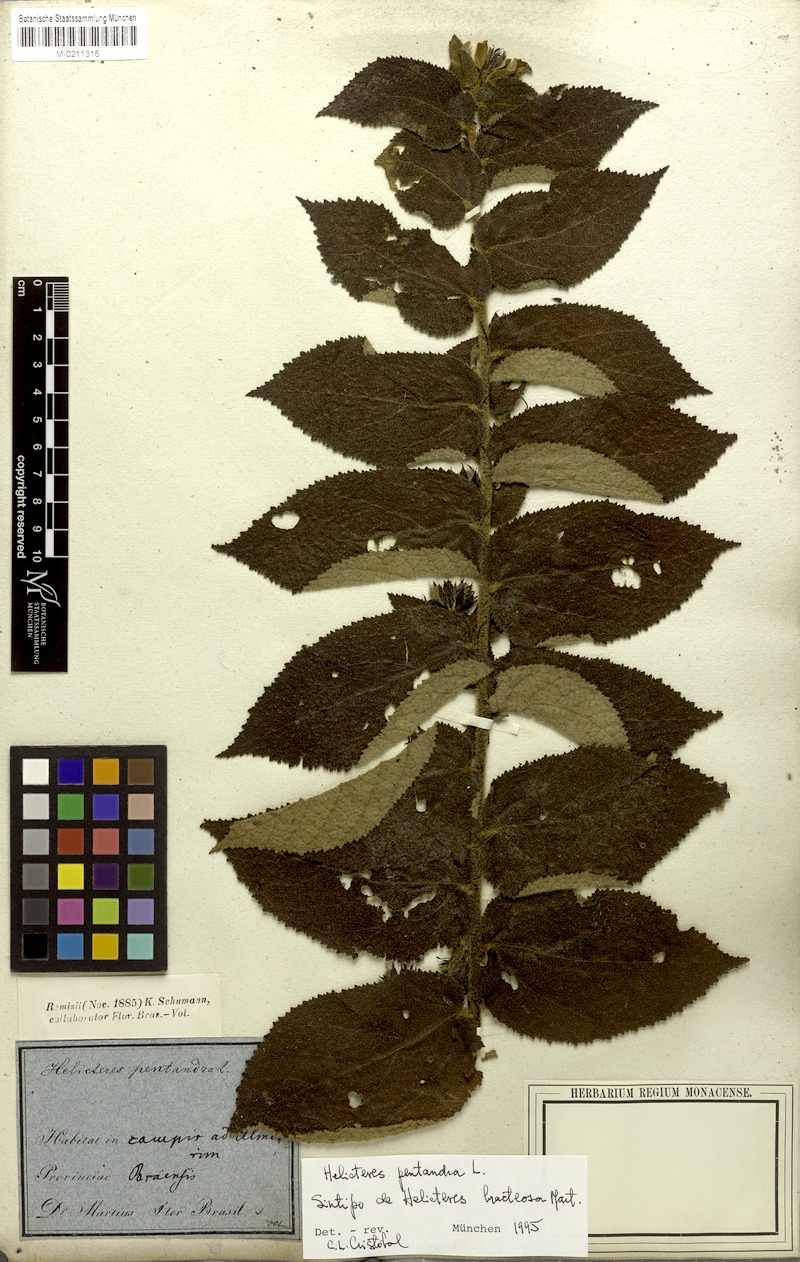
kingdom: Plantae
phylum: Tracheophyta
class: Magnoliopsida
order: Malvales
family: Malvaceae
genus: Helicteres
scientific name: Helicteres pentandra
